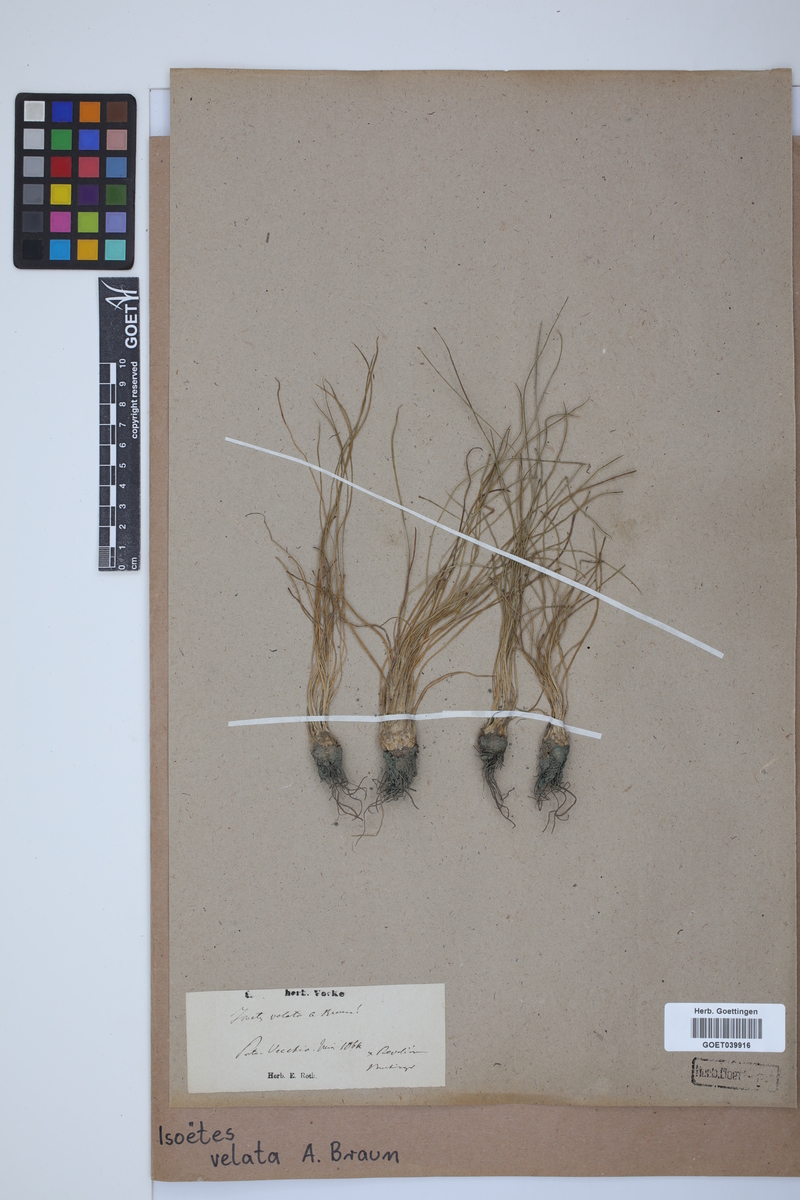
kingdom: Plantae
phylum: Tracheophyta
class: Lycopodiopsida
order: Isoetales
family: Isoetaceae
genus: Isoetes
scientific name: Isoetes longissima
